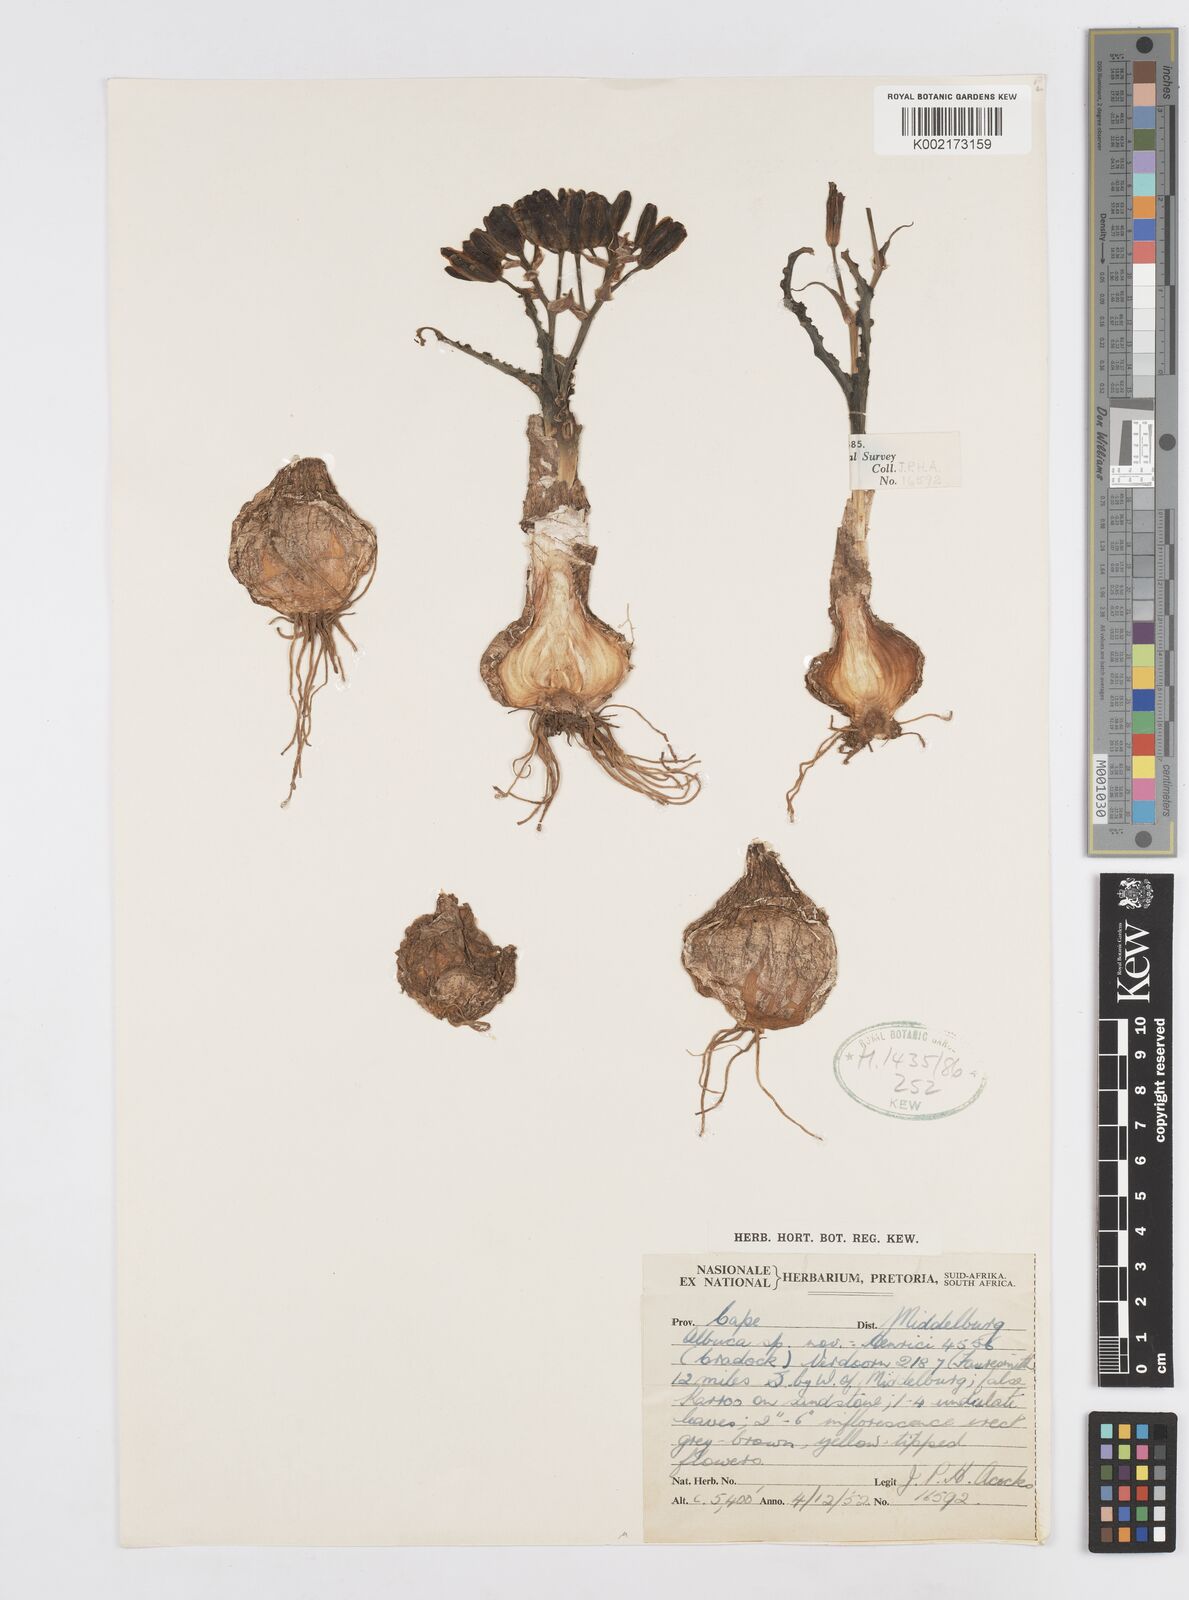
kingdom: Plantae
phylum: Tracheophyta
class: Liliopsida
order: Asparagales
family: Asparagaceae
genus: Albuca
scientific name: Albuca
